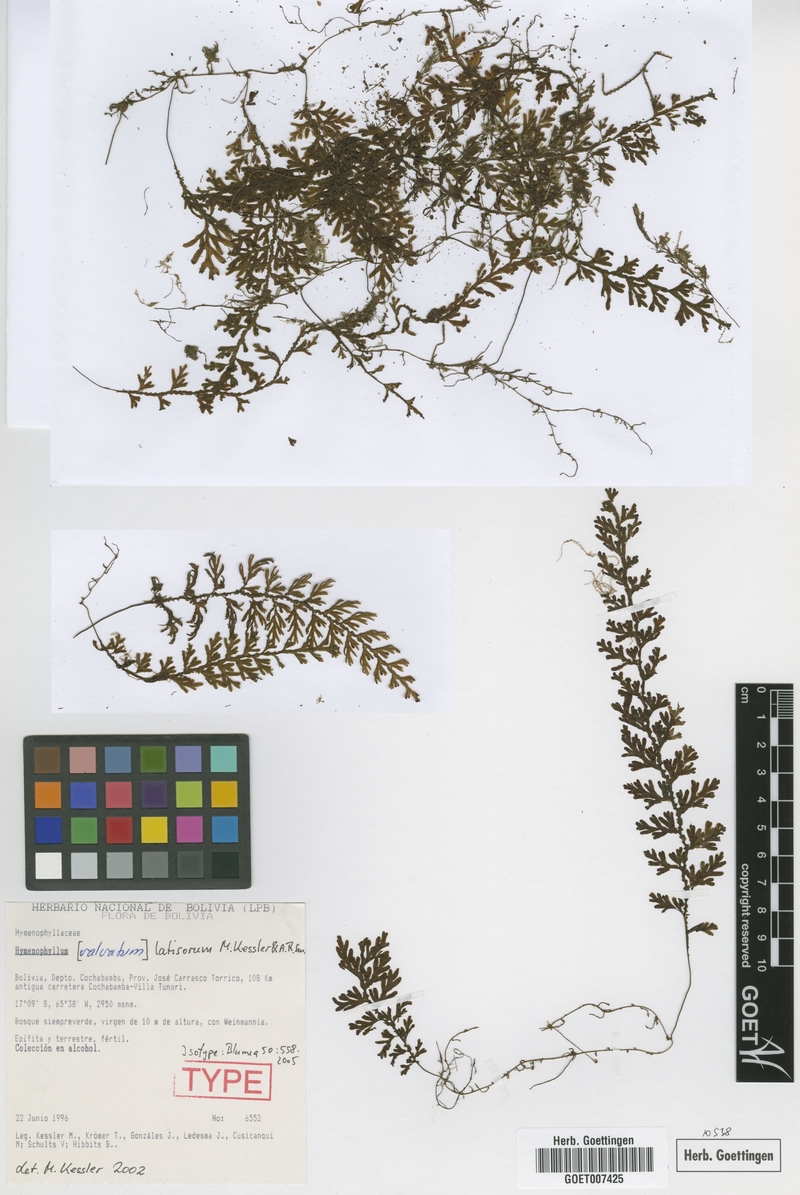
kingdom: Plantae
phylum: Tracheophyta
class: Polypodiopsida
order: Hymenophyllales
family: Hymenophyllaceae
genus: Hymenophyllum
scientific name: Hymenophyllum latisorum
